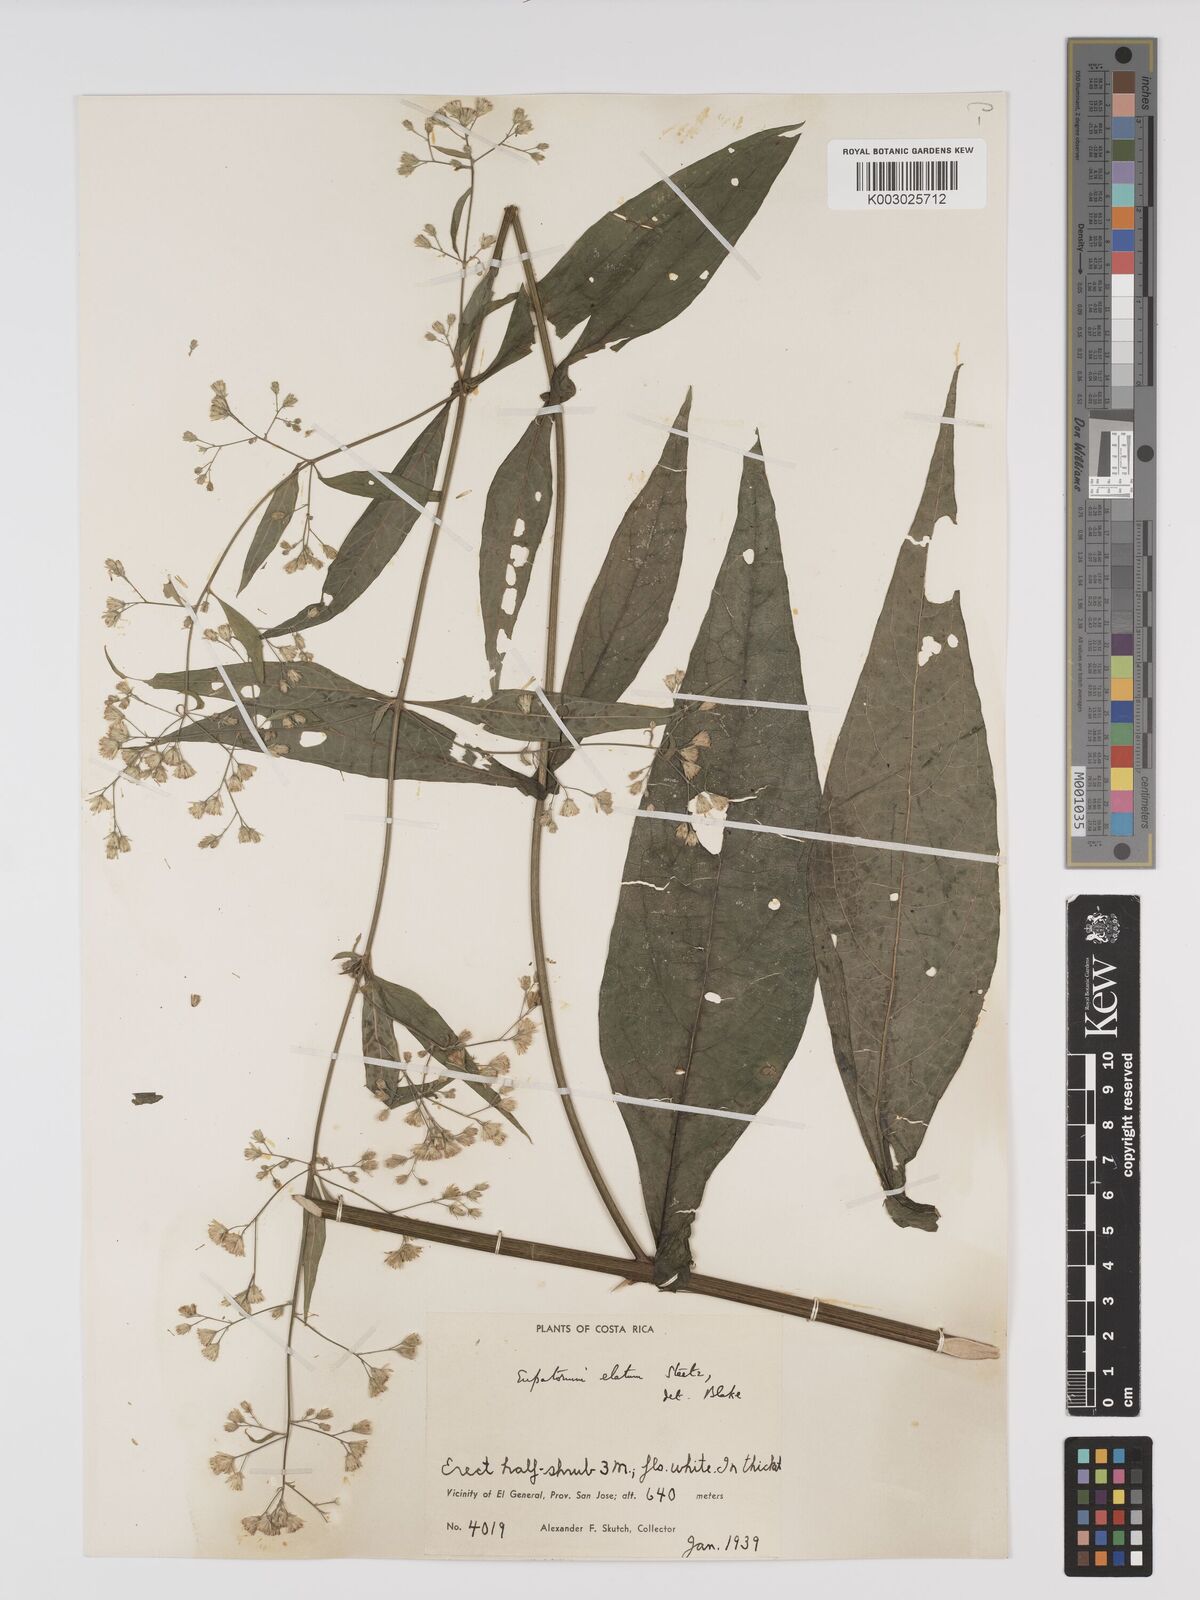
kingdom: Plantae
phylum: Tracheophyta
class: Magnoliopsida
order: Asterales
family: Asteraceae
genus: Ayapana
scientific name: Ayapana elata
